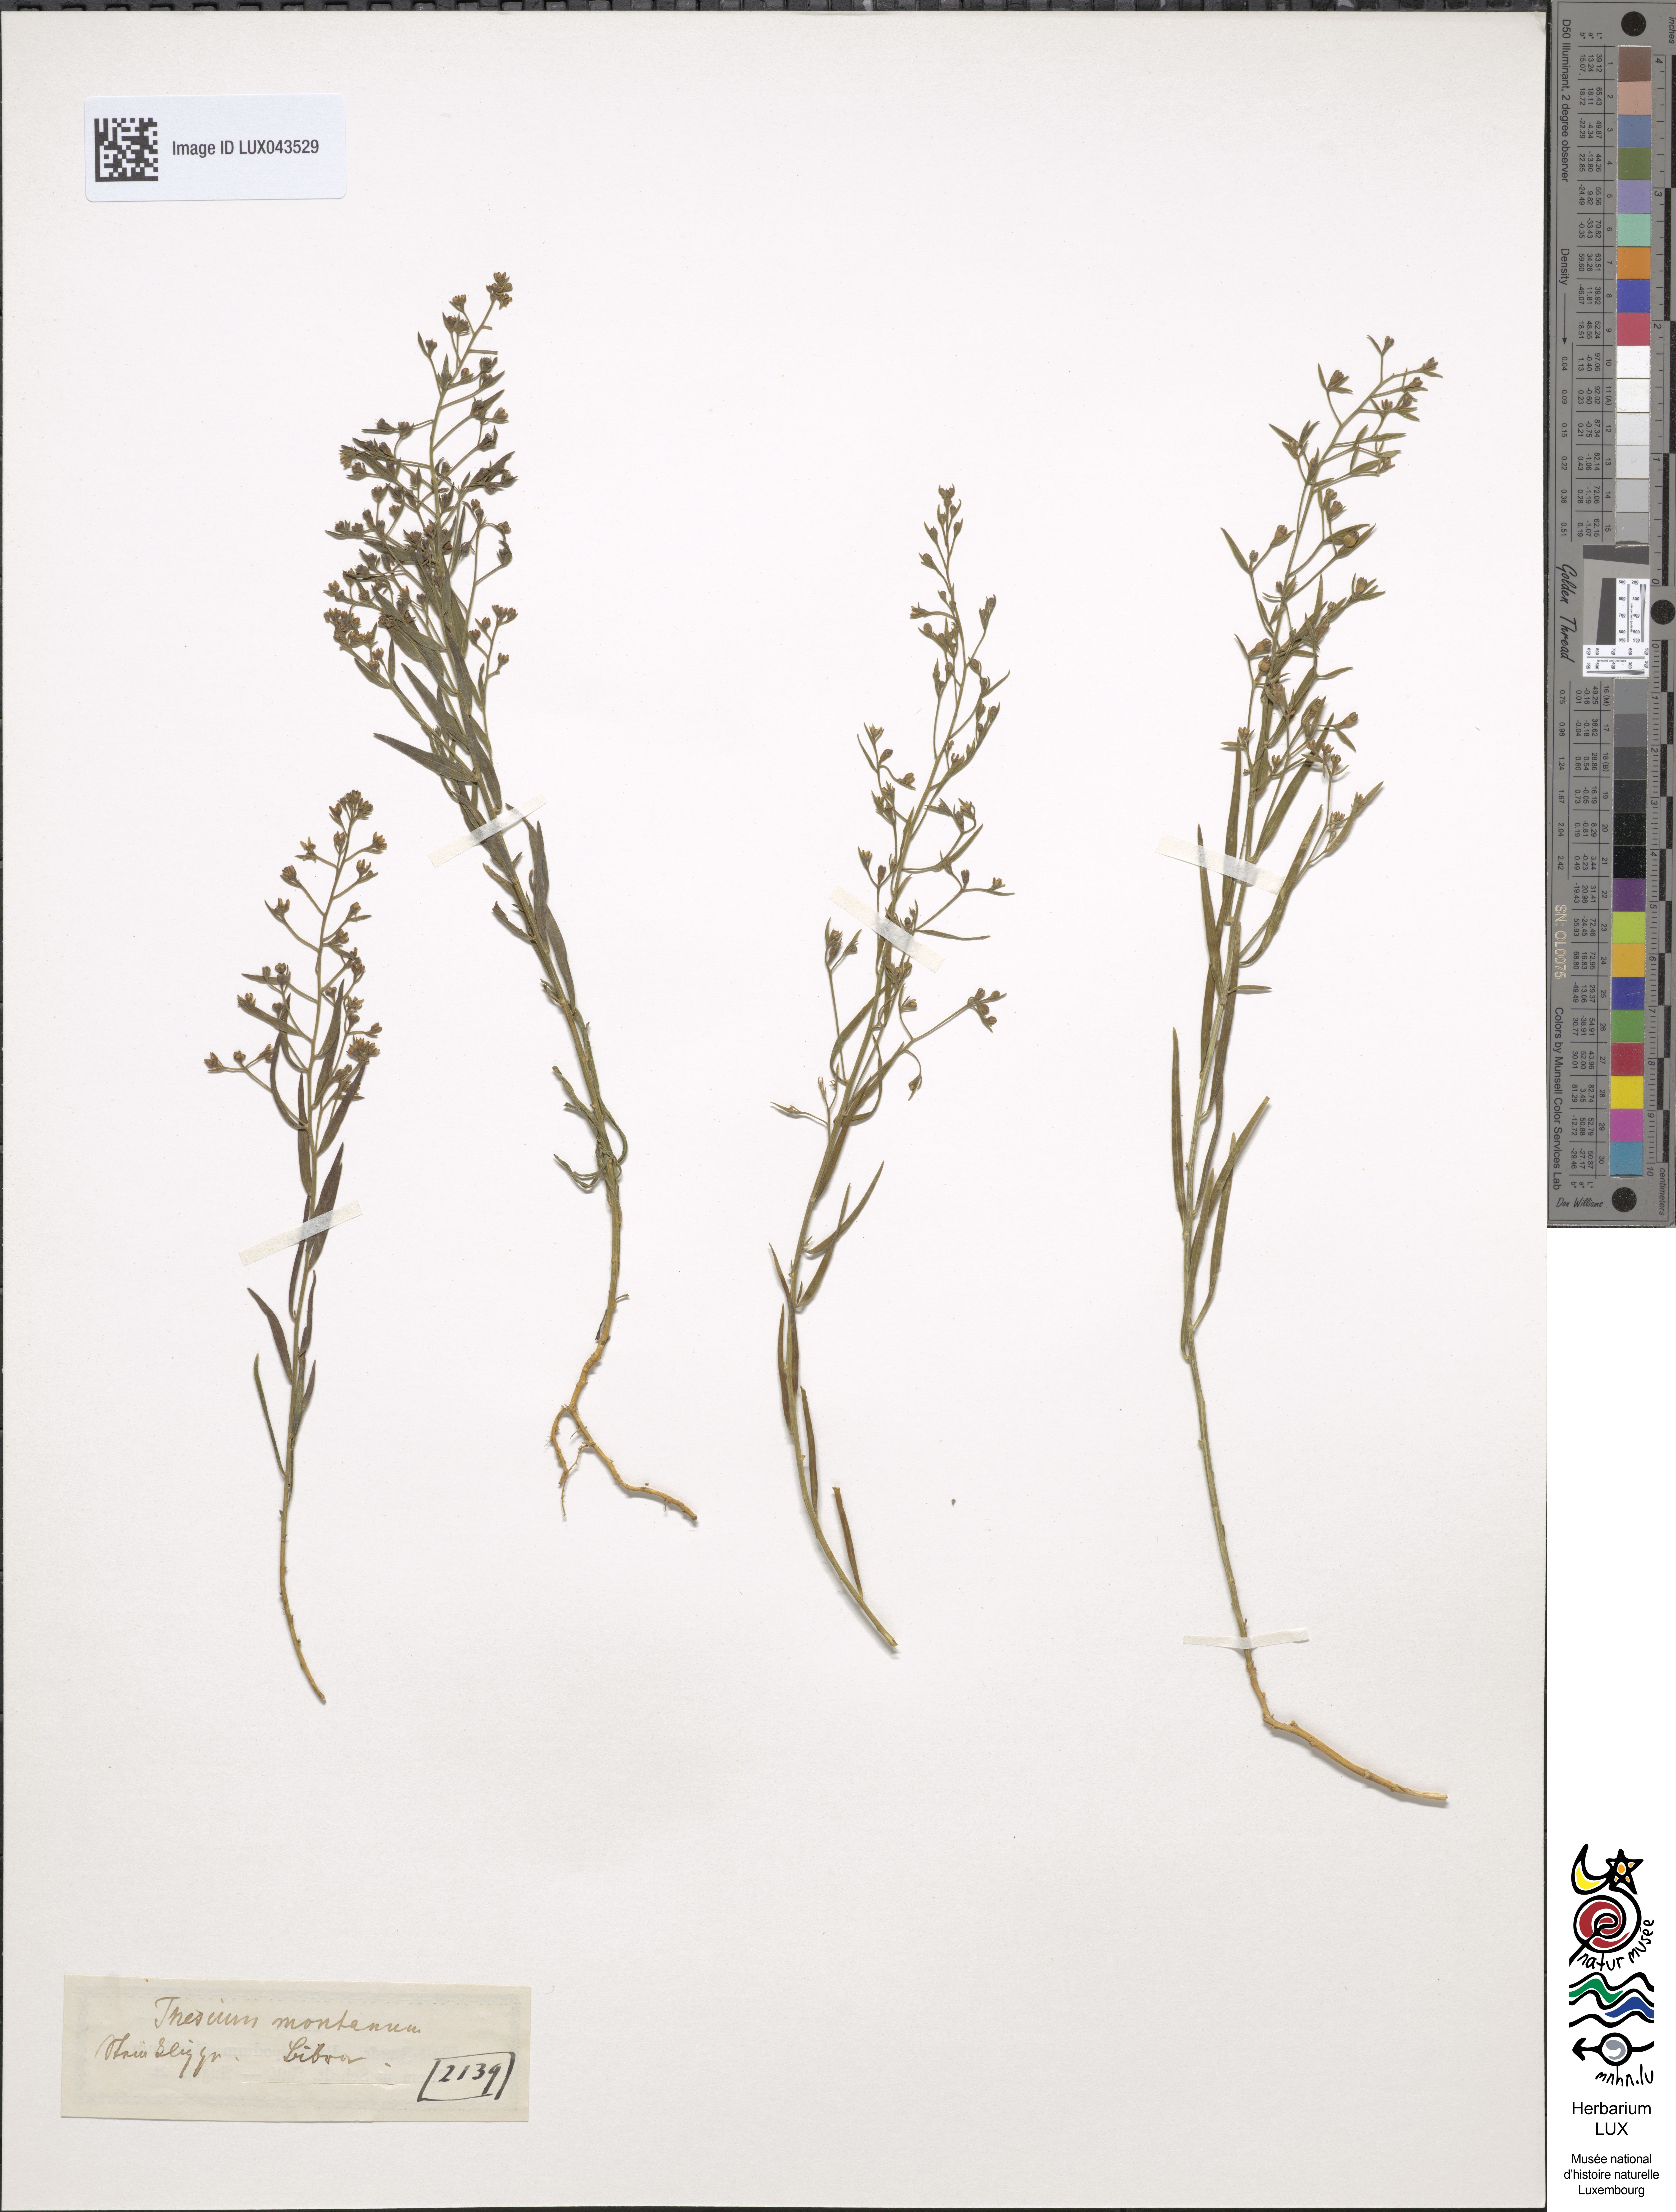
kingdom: Plantae
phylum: Tracheophyta
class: Magnoliopsida
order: Santalales
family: Thesiaceae
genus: Thesium
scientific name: Thesium bavarum
